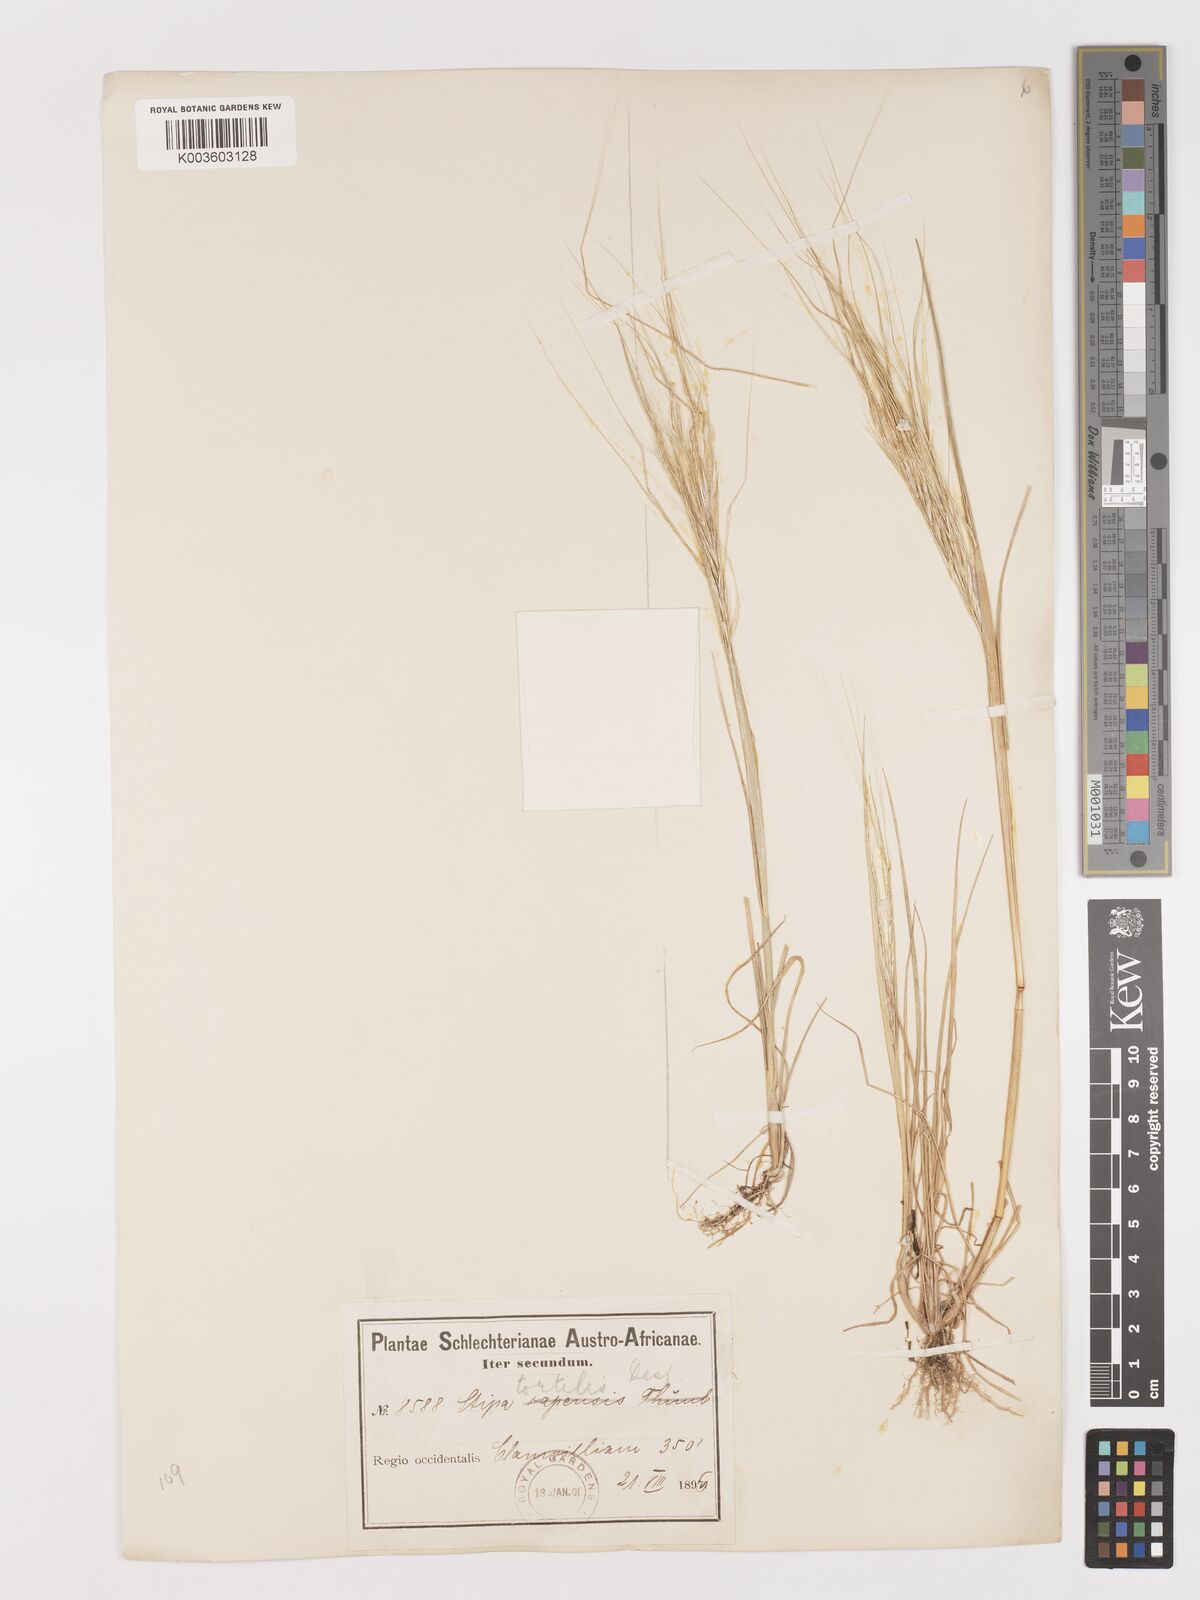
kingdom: Plantae
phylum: Tracheophyta
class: Liliopsida
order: Poales
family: Poaceae
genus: Stipellula
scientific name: Stipellula capensis
